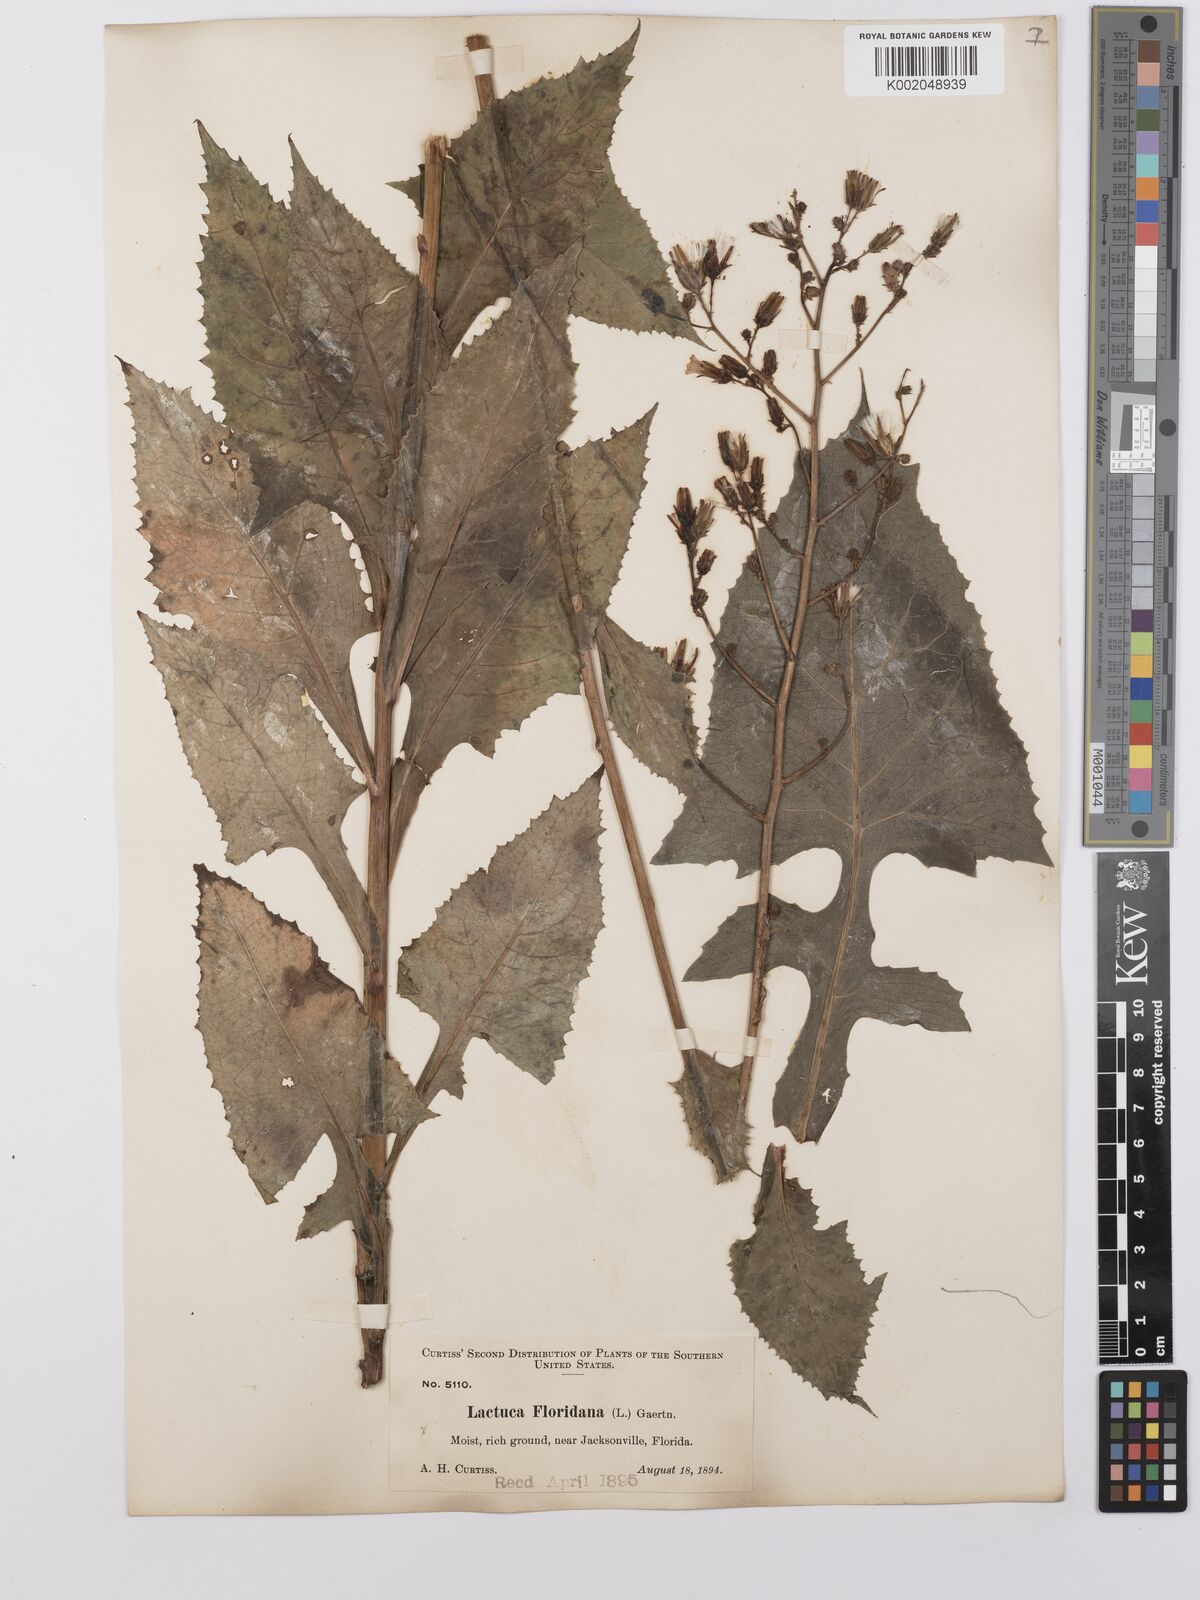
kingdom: Plantae
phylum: Tracheophyta
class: Magnoliopsida
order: Asterales
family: Asteraceae
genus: Lactuca
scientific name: Lactuca floridana
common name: Woodland lettuce
